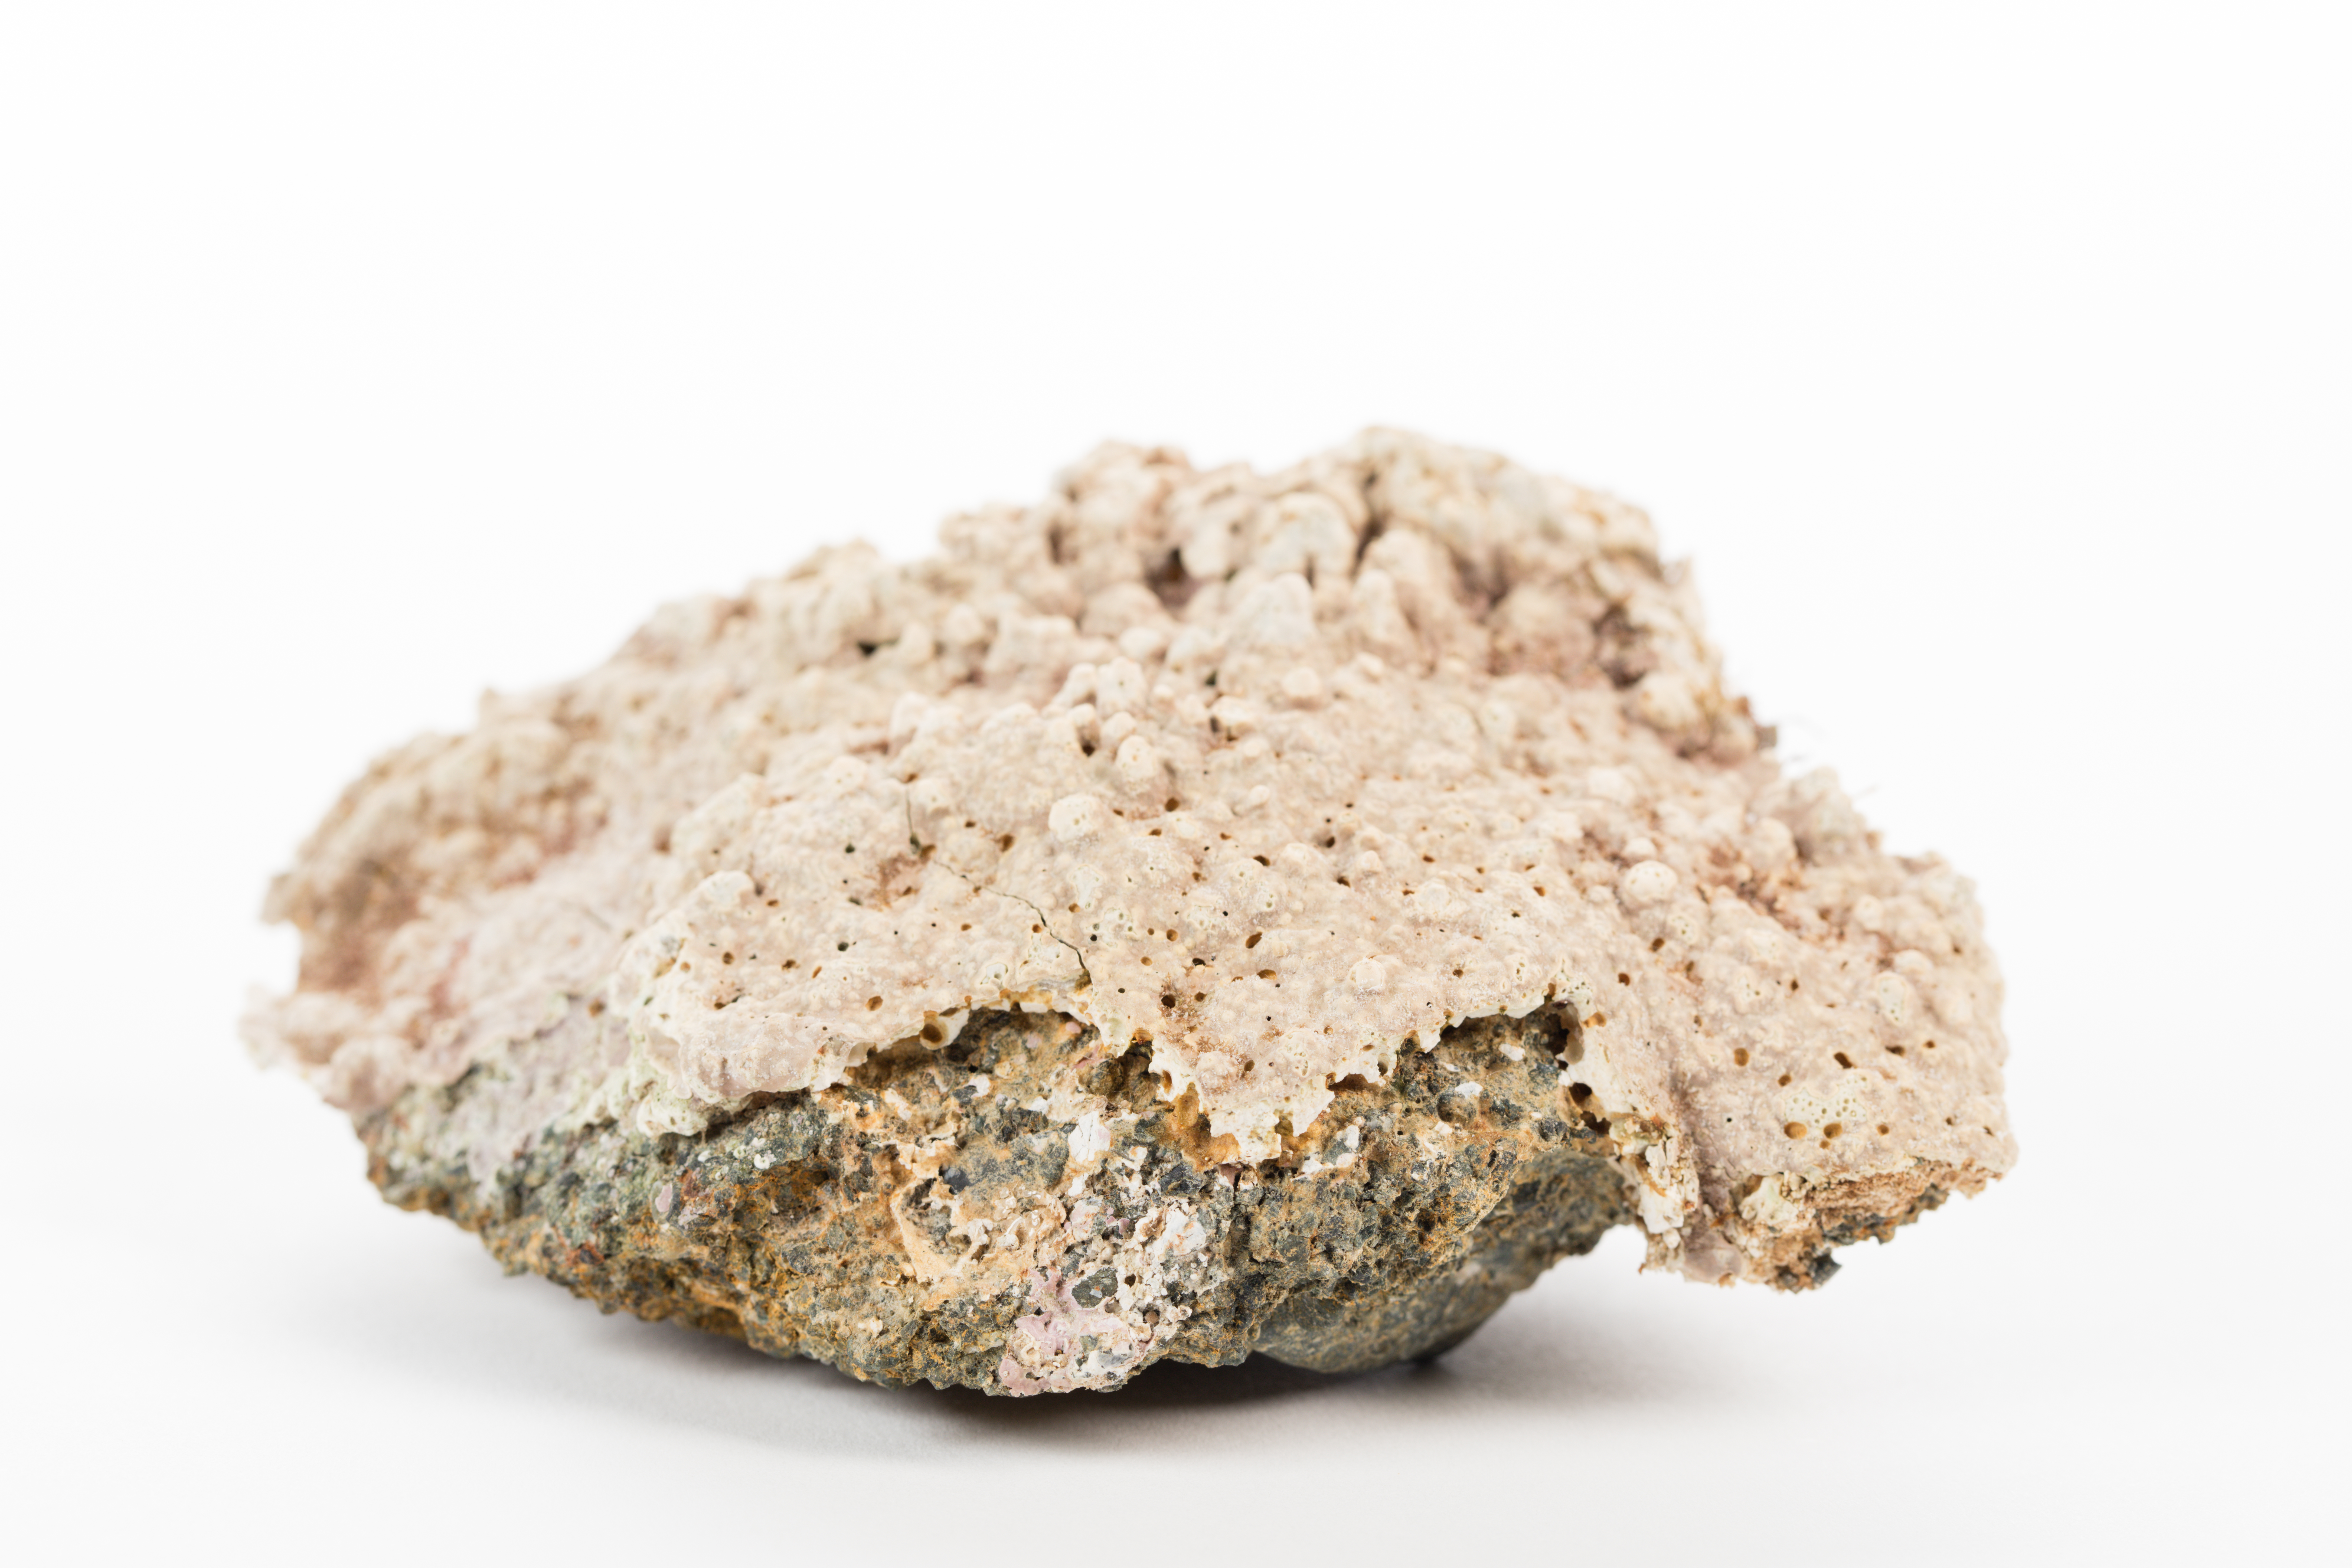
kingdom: Plantae
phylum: Rhodophyta
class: Florideophyceae
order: Corallinales
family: Hapalidiaceae
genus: Lithothamnion
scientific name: Lithothamnion
